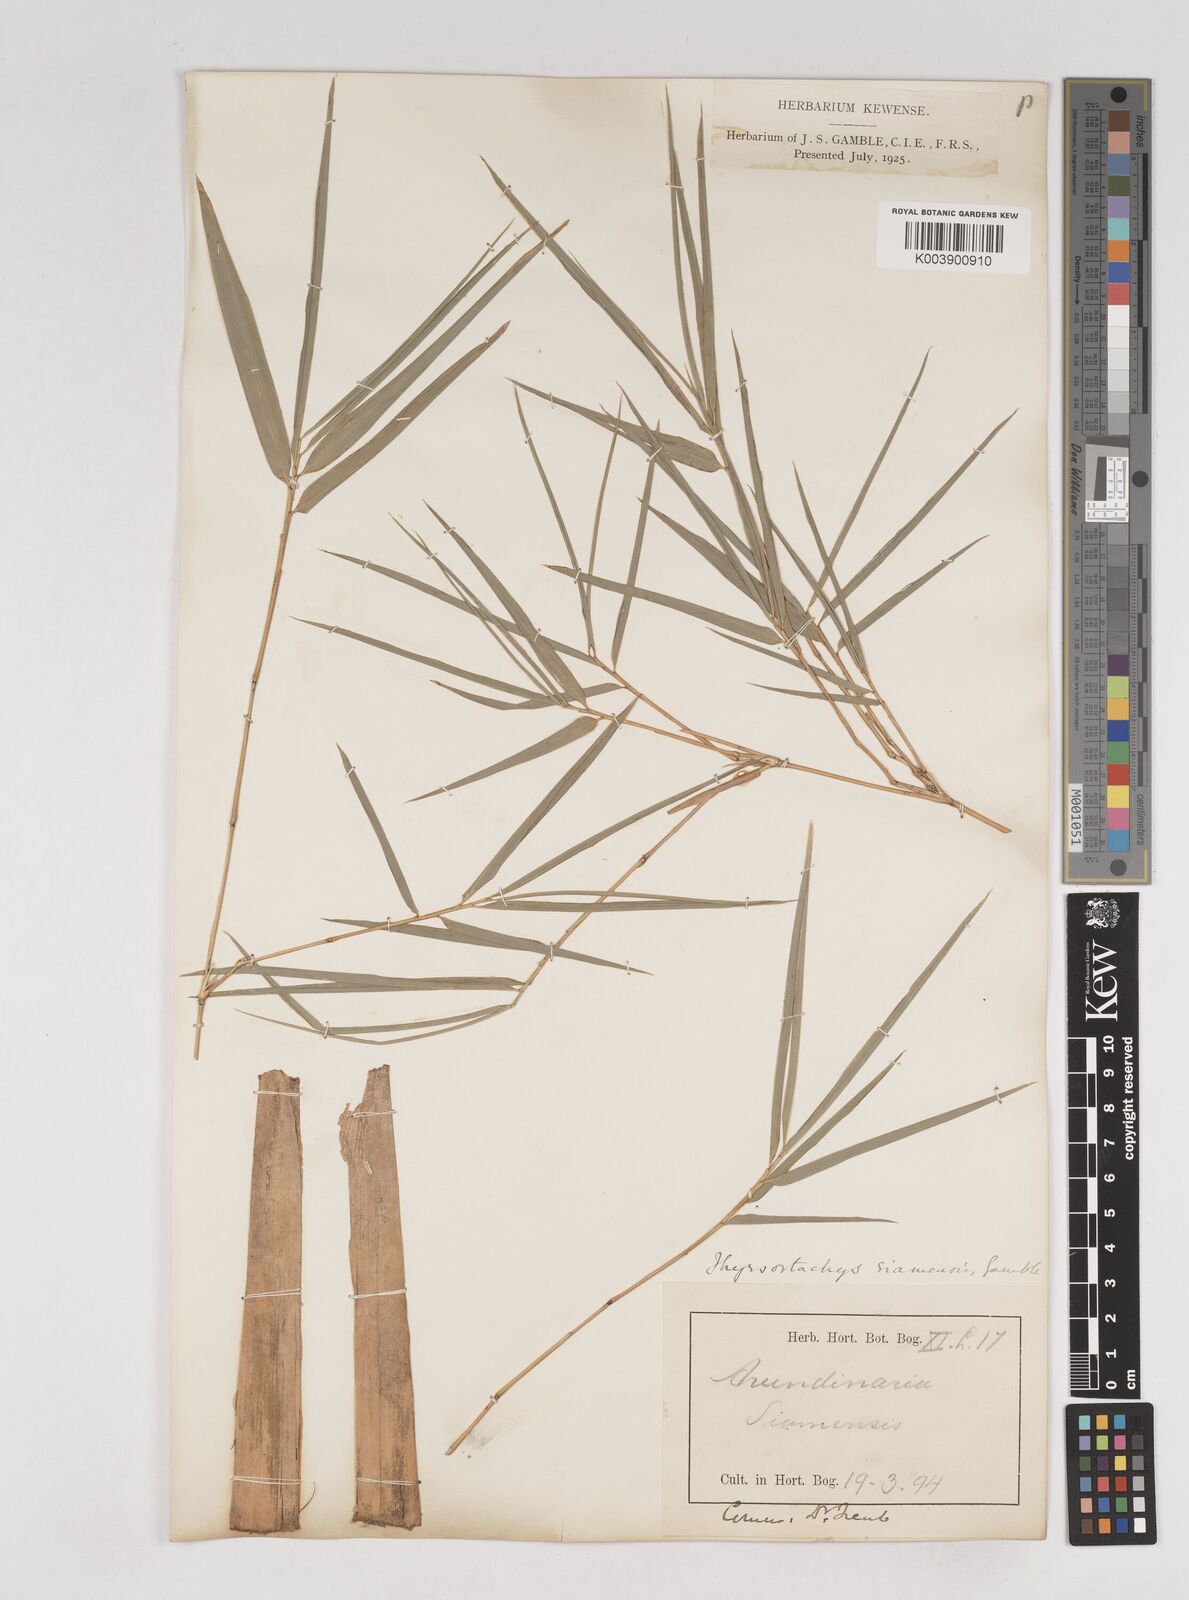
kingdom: Plantae
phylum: Tracheophyta
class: Liliopsida
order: Poales
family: Poaceae
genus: Thyrsostachys
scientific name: Thyrsostachys siamensis
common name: Thailand bamboo
